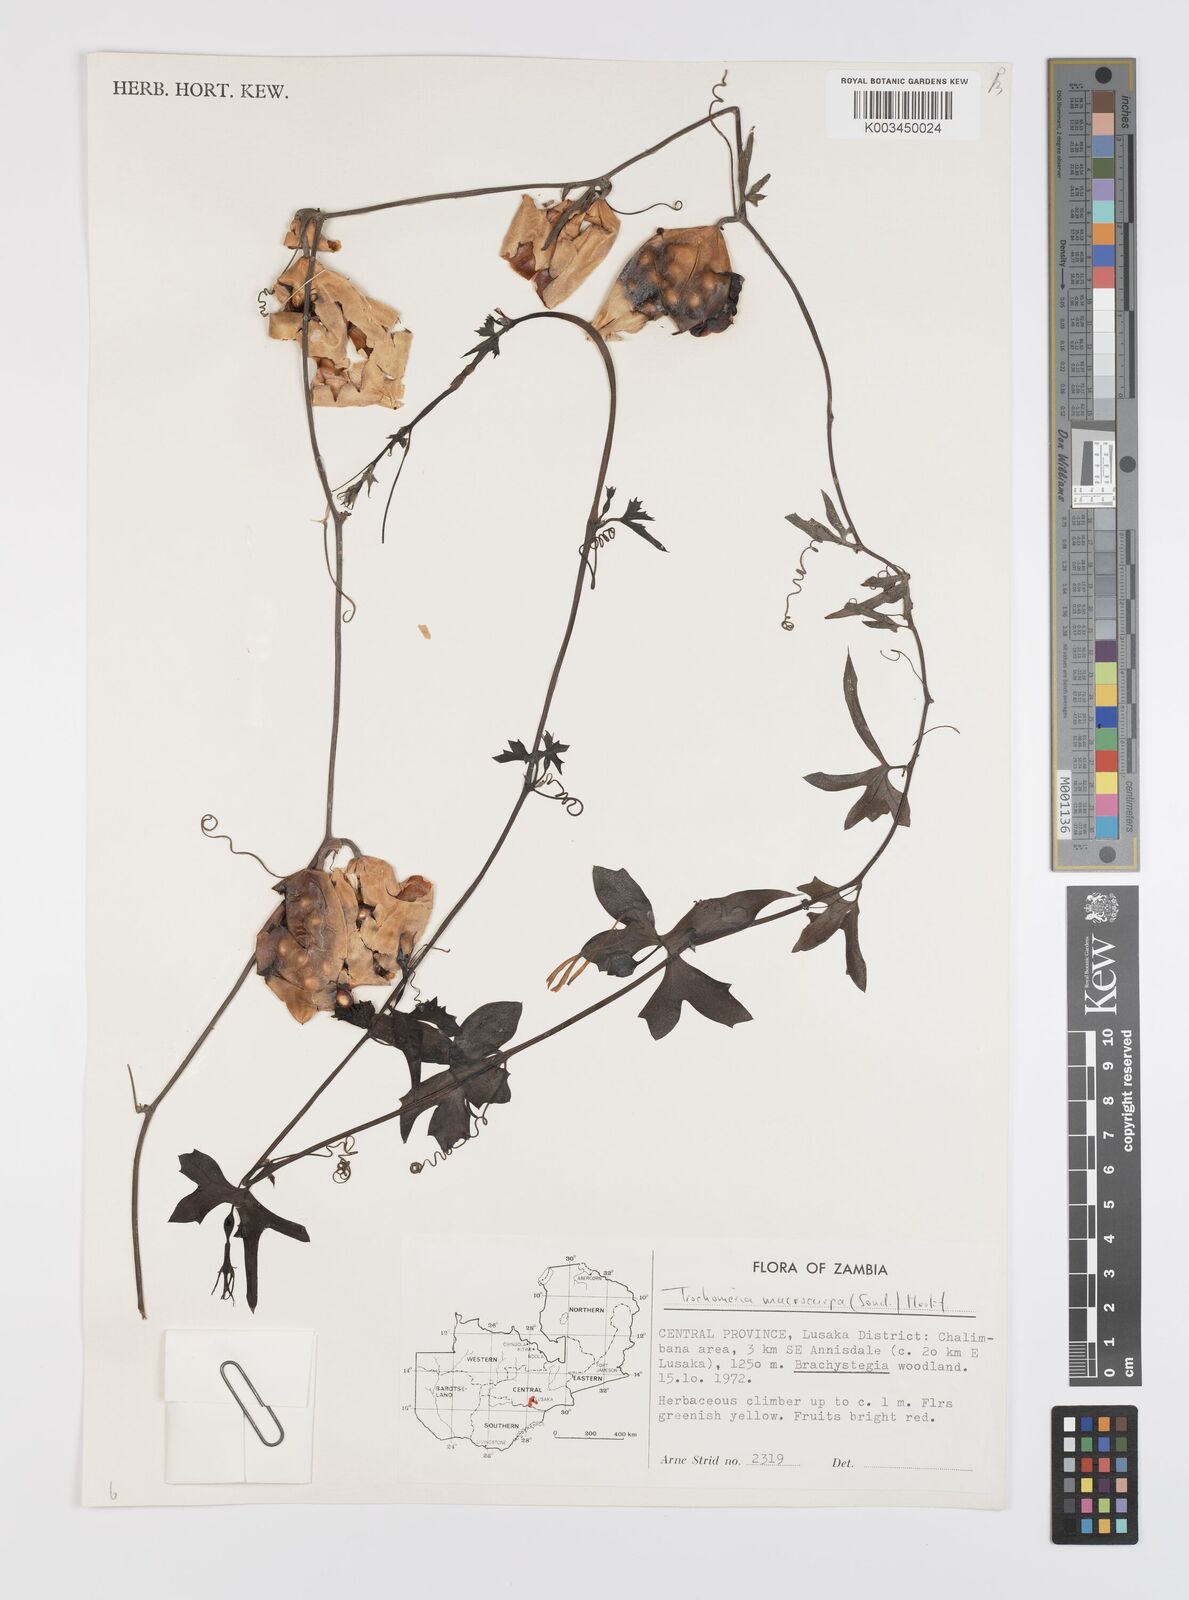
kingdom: Plantae
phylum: Tracheophyta
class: Magnoliopsida
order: Cucurbitales
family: Cucurbitaceae
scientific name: Cucurbitaceae
